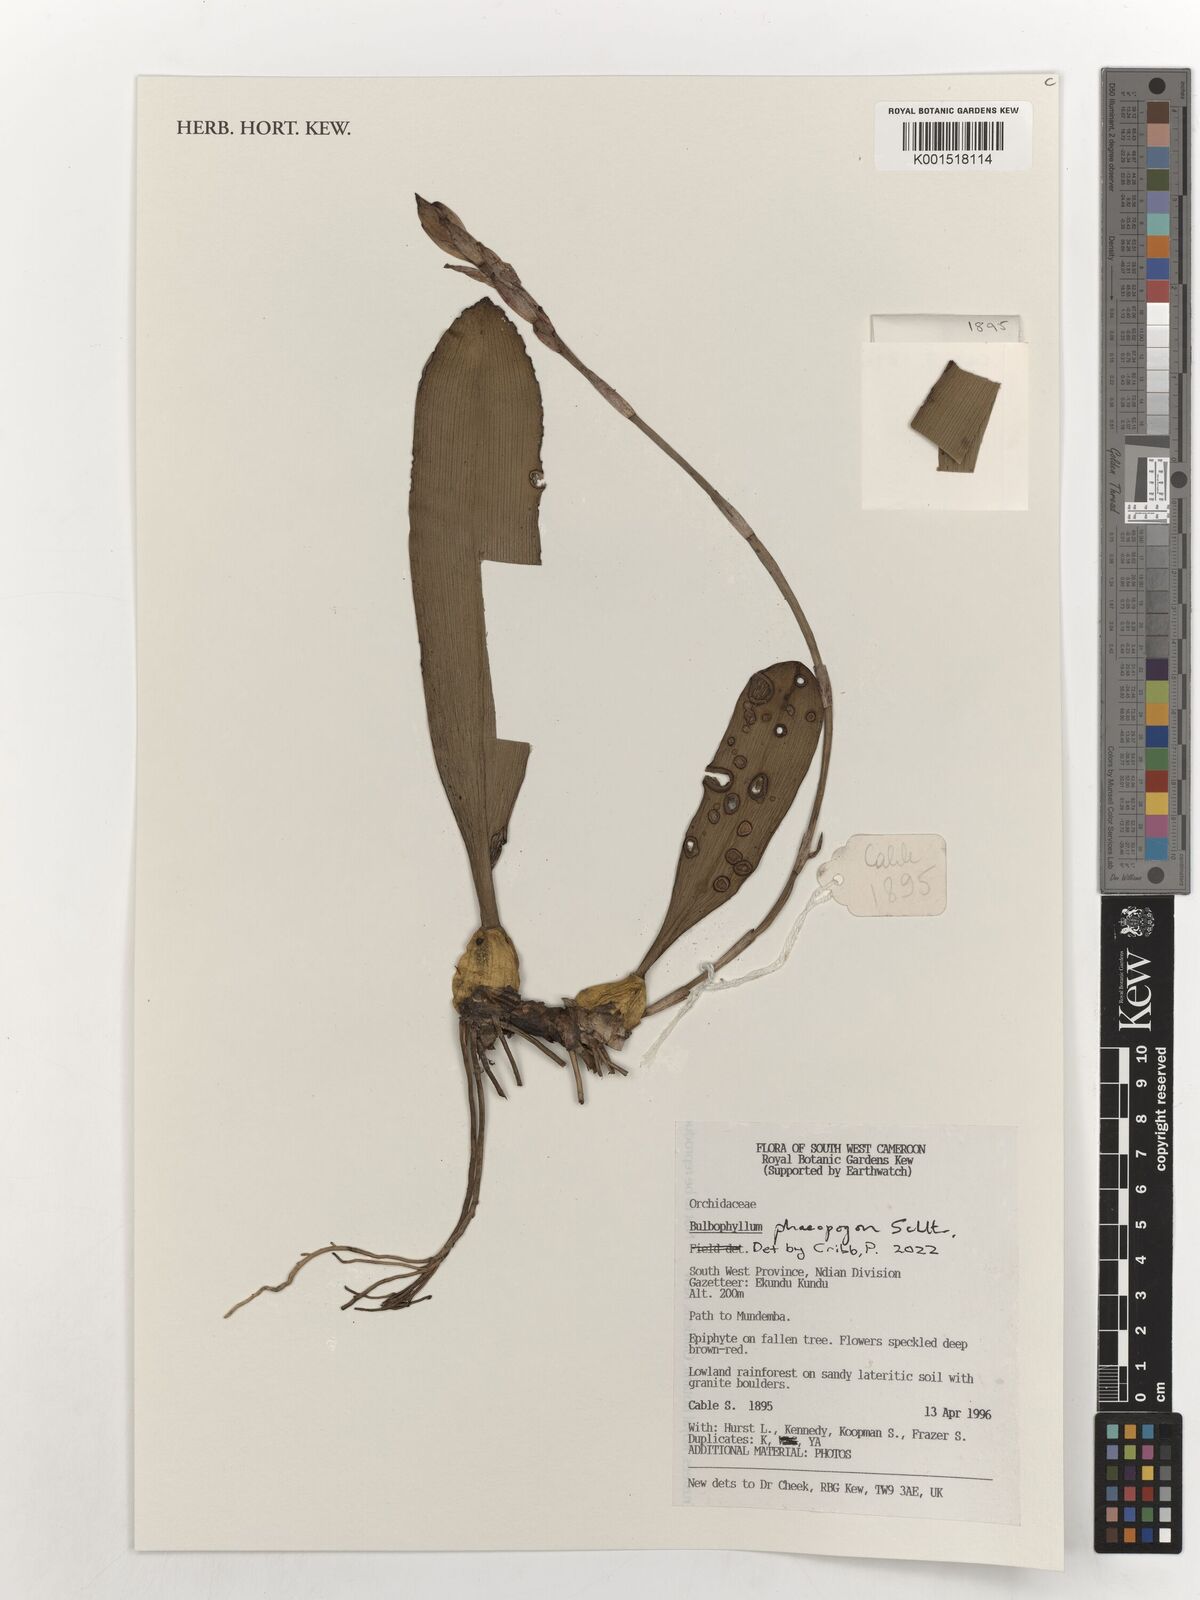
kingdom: Plantae
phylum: Tracheophyta
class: Liliopsida
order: Asparagales
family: Orchidaceae
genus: Bulbophyllum
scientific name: Bulbophyllum schinzianum
